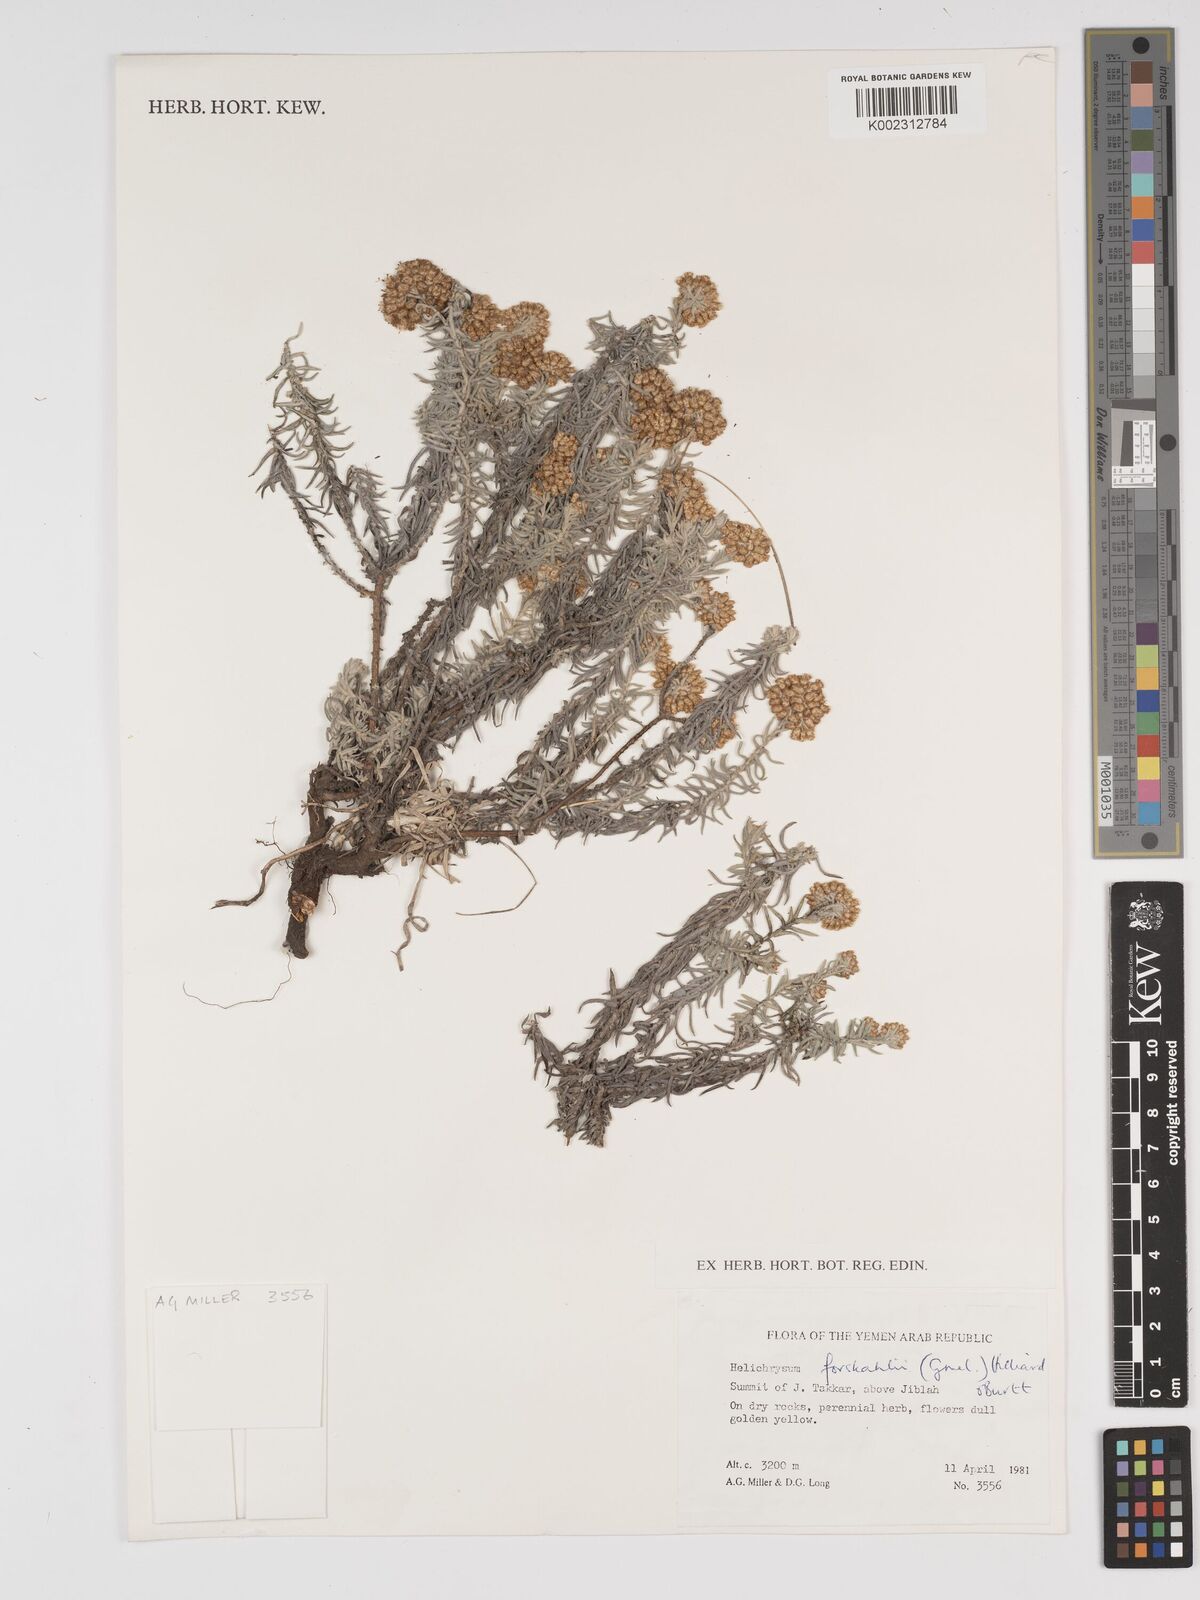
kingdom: Plantae
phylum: Tracheophyta
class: Magnoliopsida
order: Asterales
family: Asteraceae
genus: Helichrysum
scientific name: Helichrysum forskahlii
